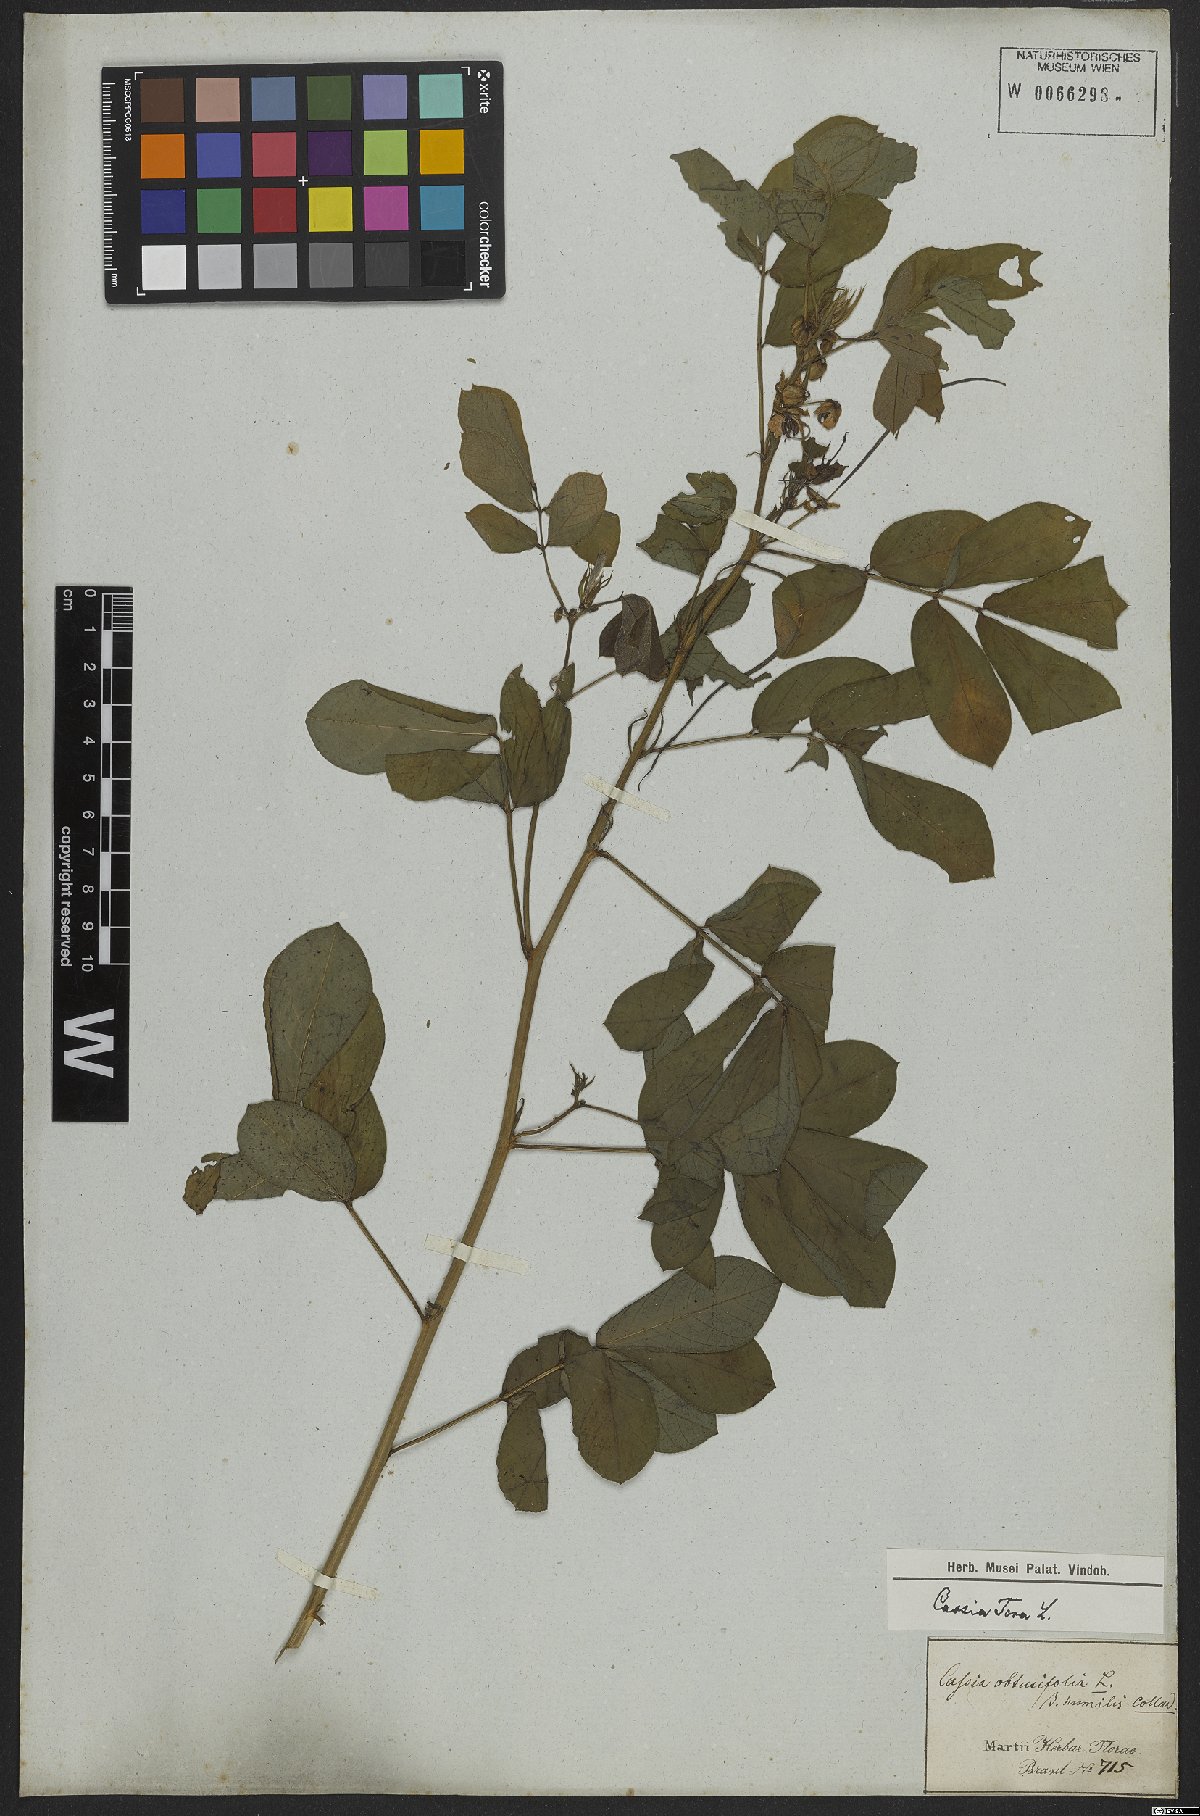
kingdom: Plantae
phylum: Tracheophyta
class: Magnoliopsida
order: Fabales
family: Fabaceae
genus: Senna
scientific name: Senna tora
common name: Sickle senna
